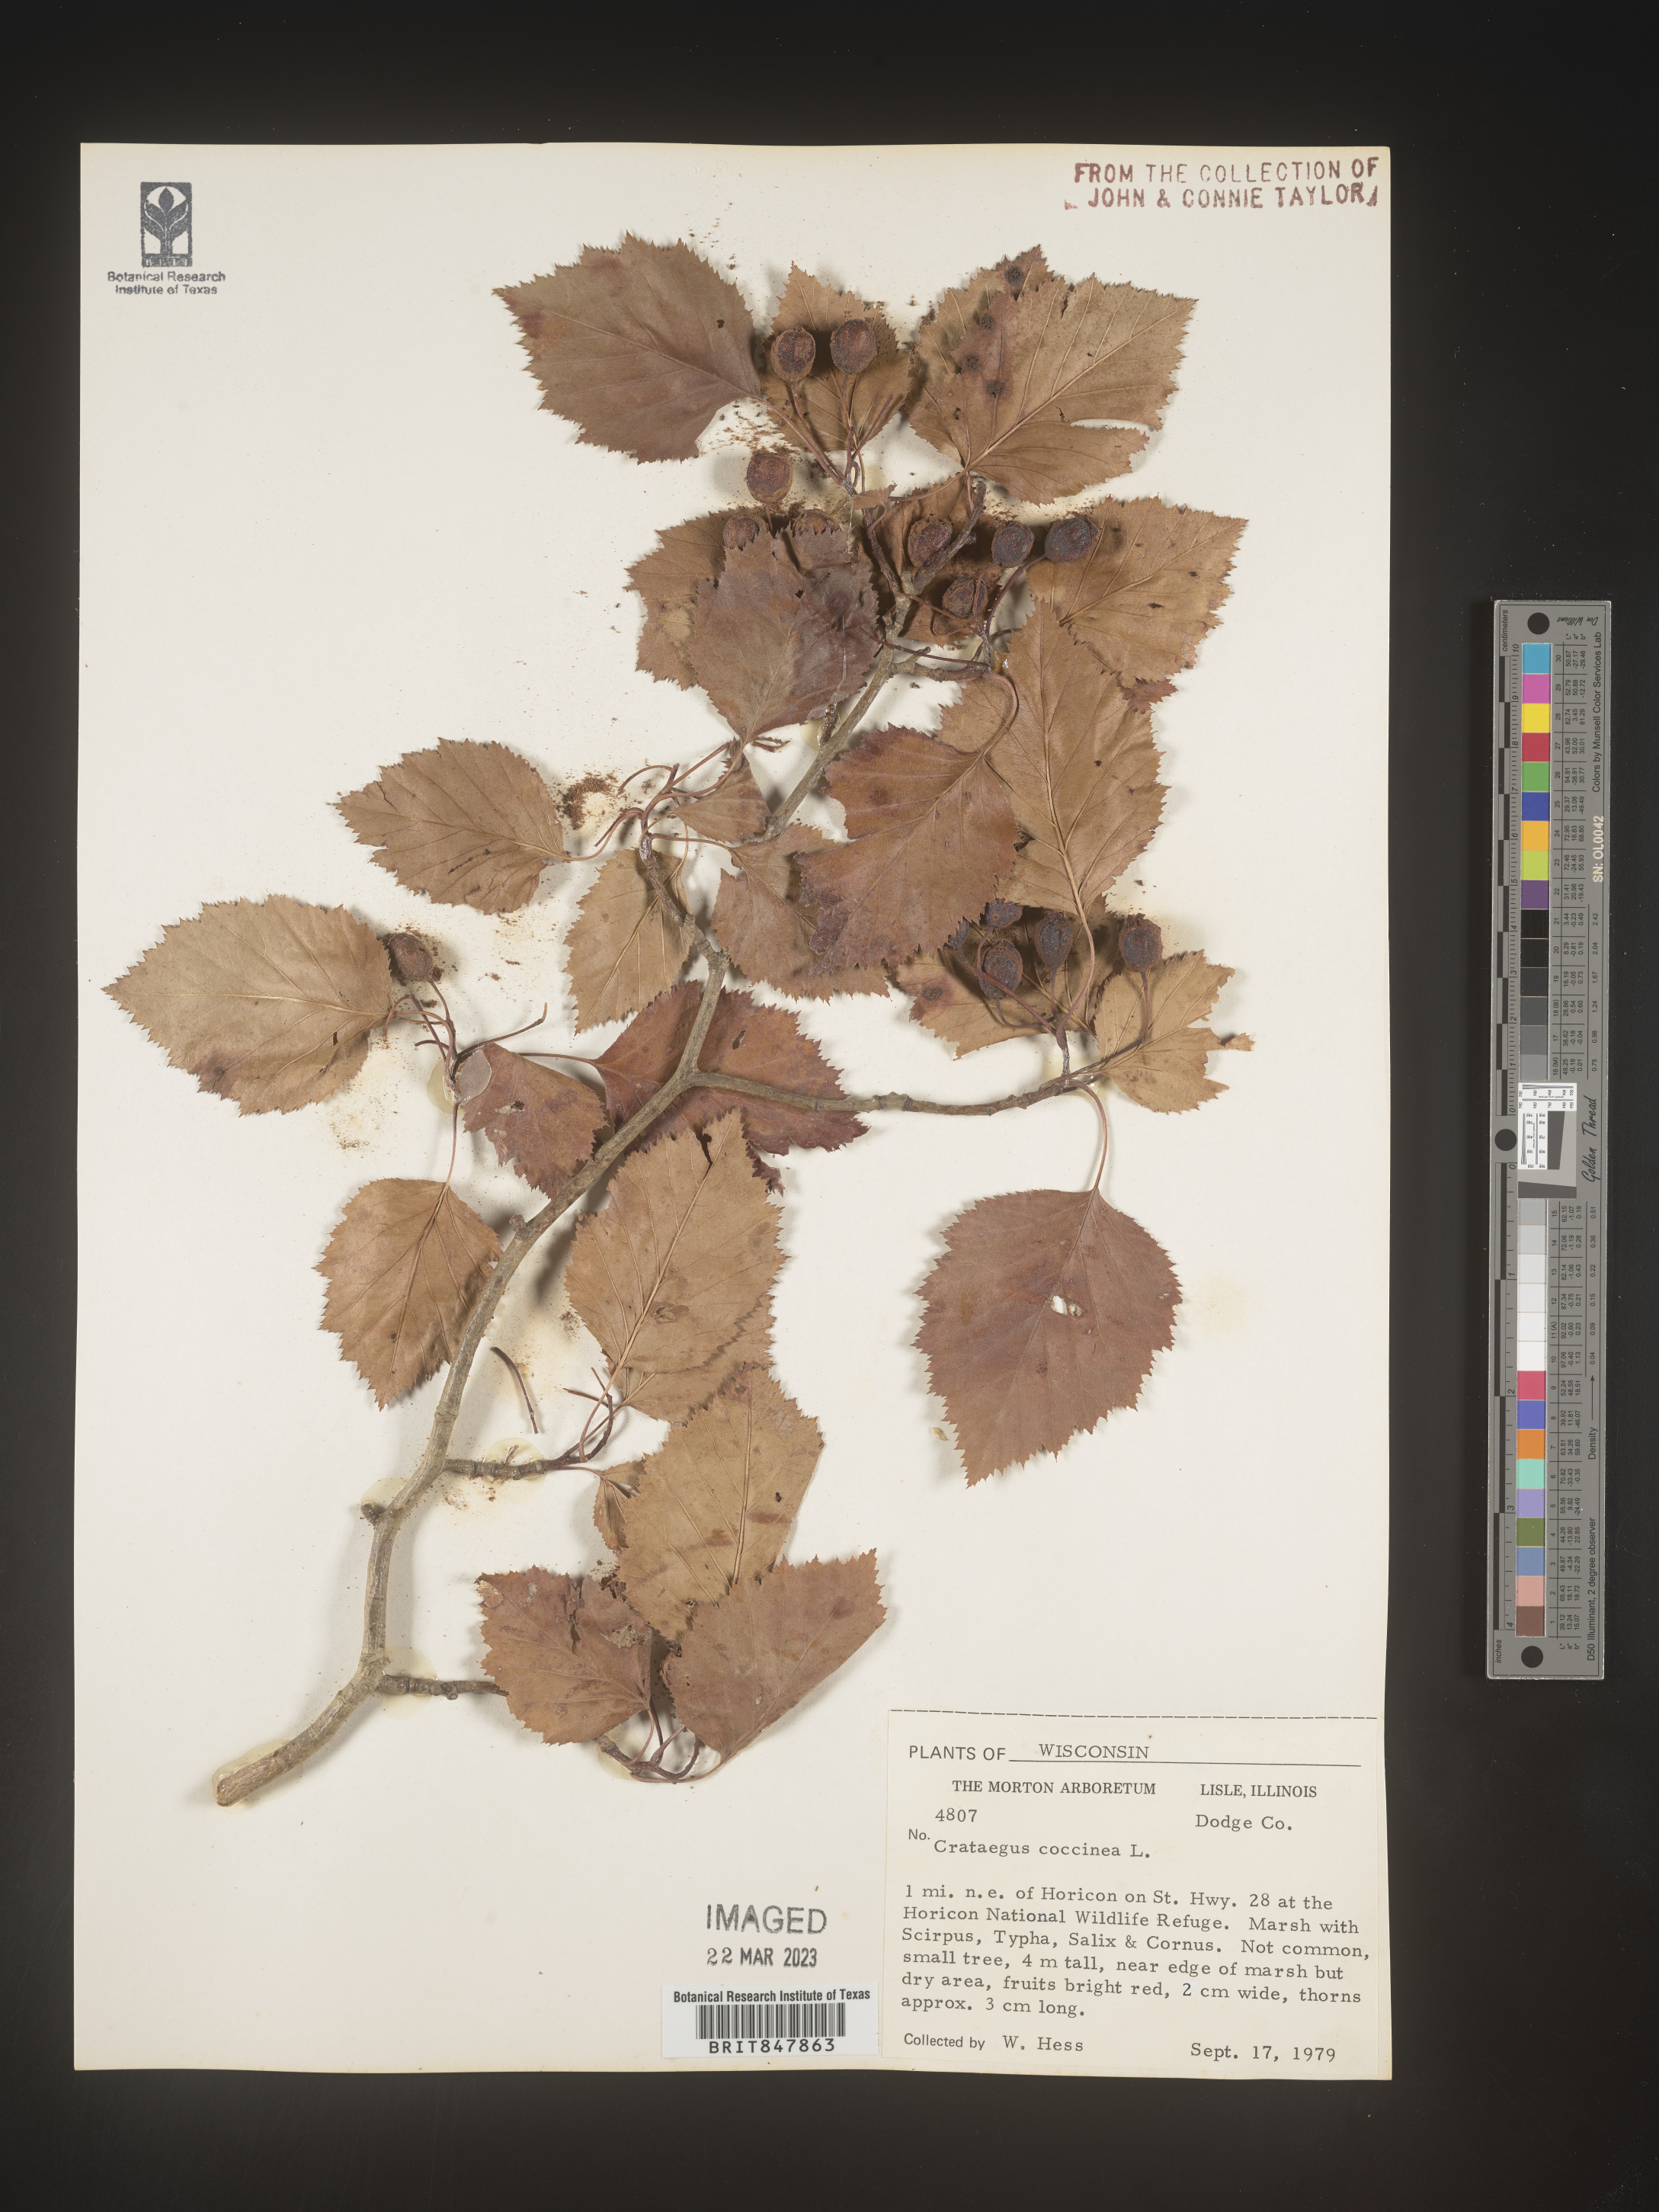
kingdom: Plantae
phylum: Tracheophyta
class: Magnoliopsida
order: Rosales
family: Rosaceae
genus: Crataegus
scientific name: Crataegus
